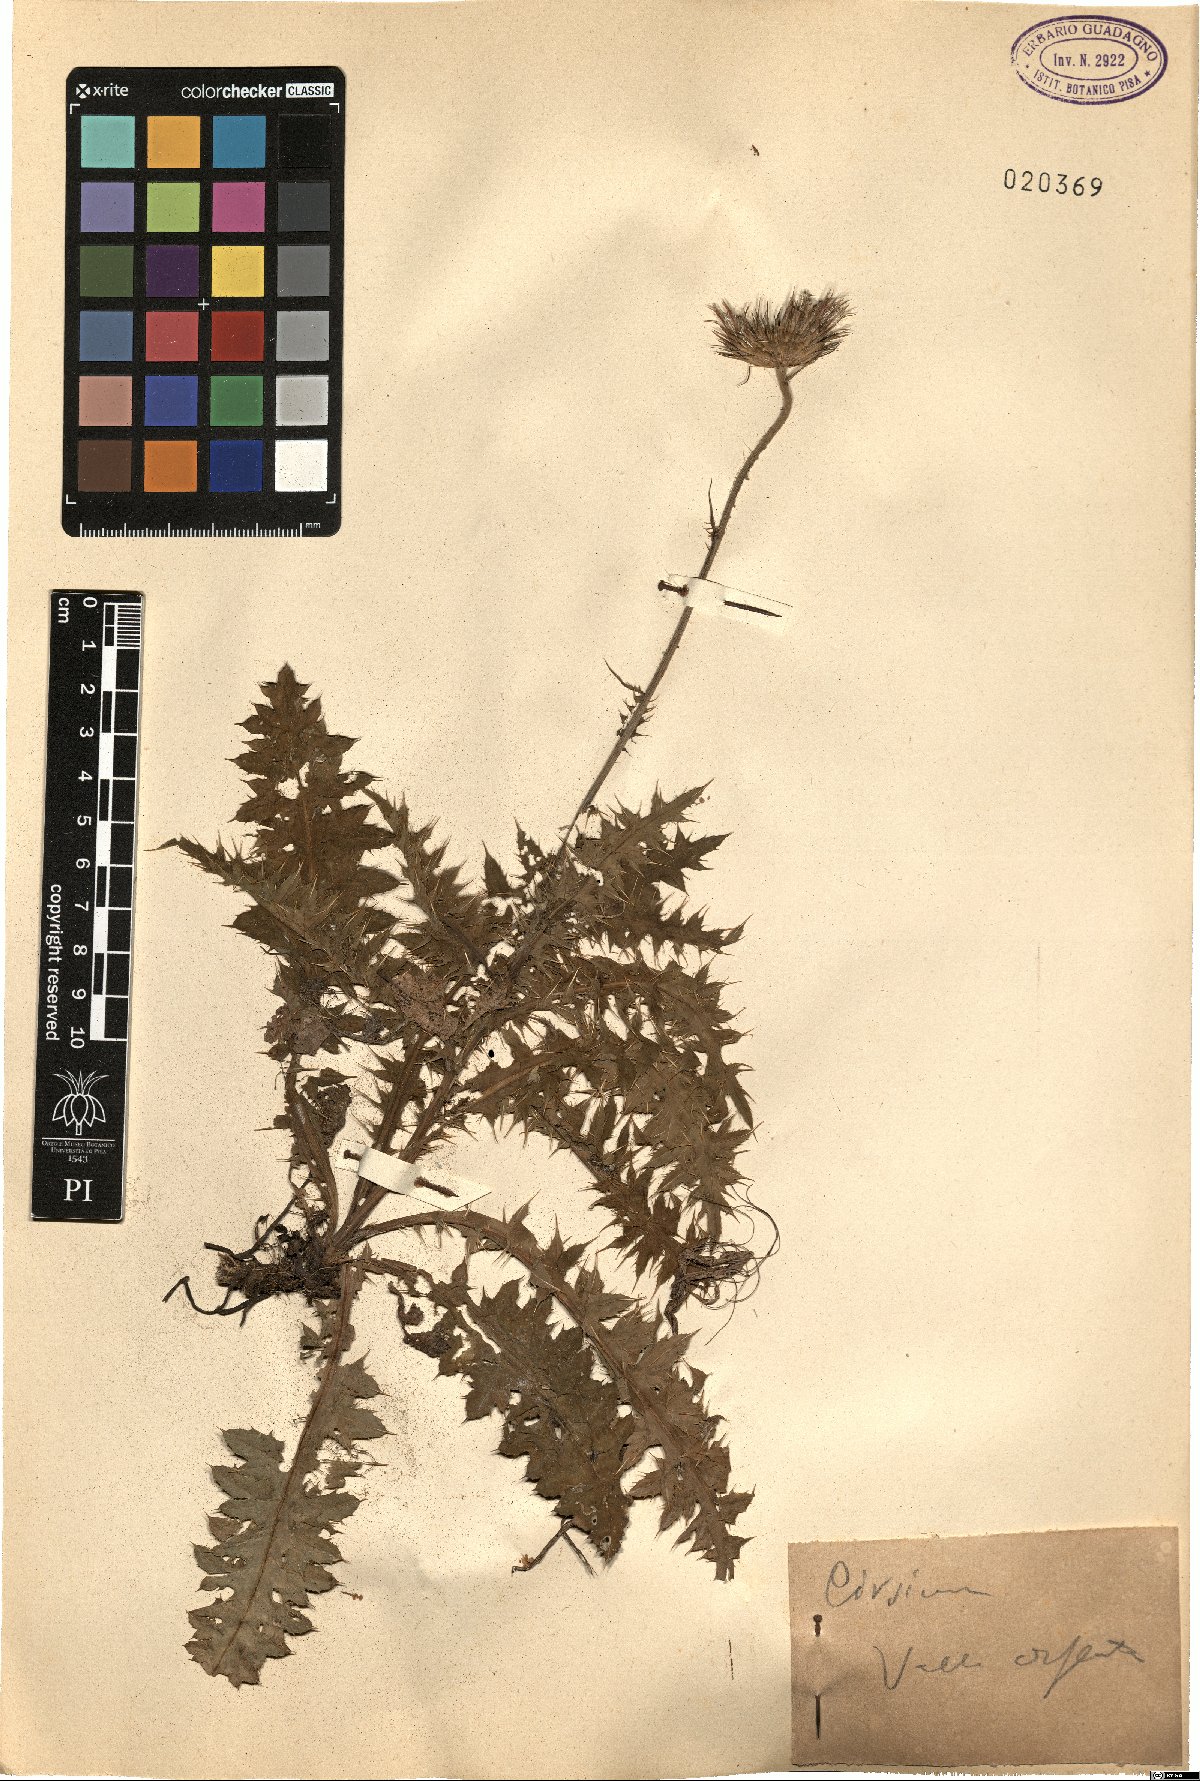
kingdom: Plantae
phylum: Tracheophyta
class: Magnoliopsida
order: Asterales
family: Asteraceae
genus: Cirsium
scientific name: Cirsium
